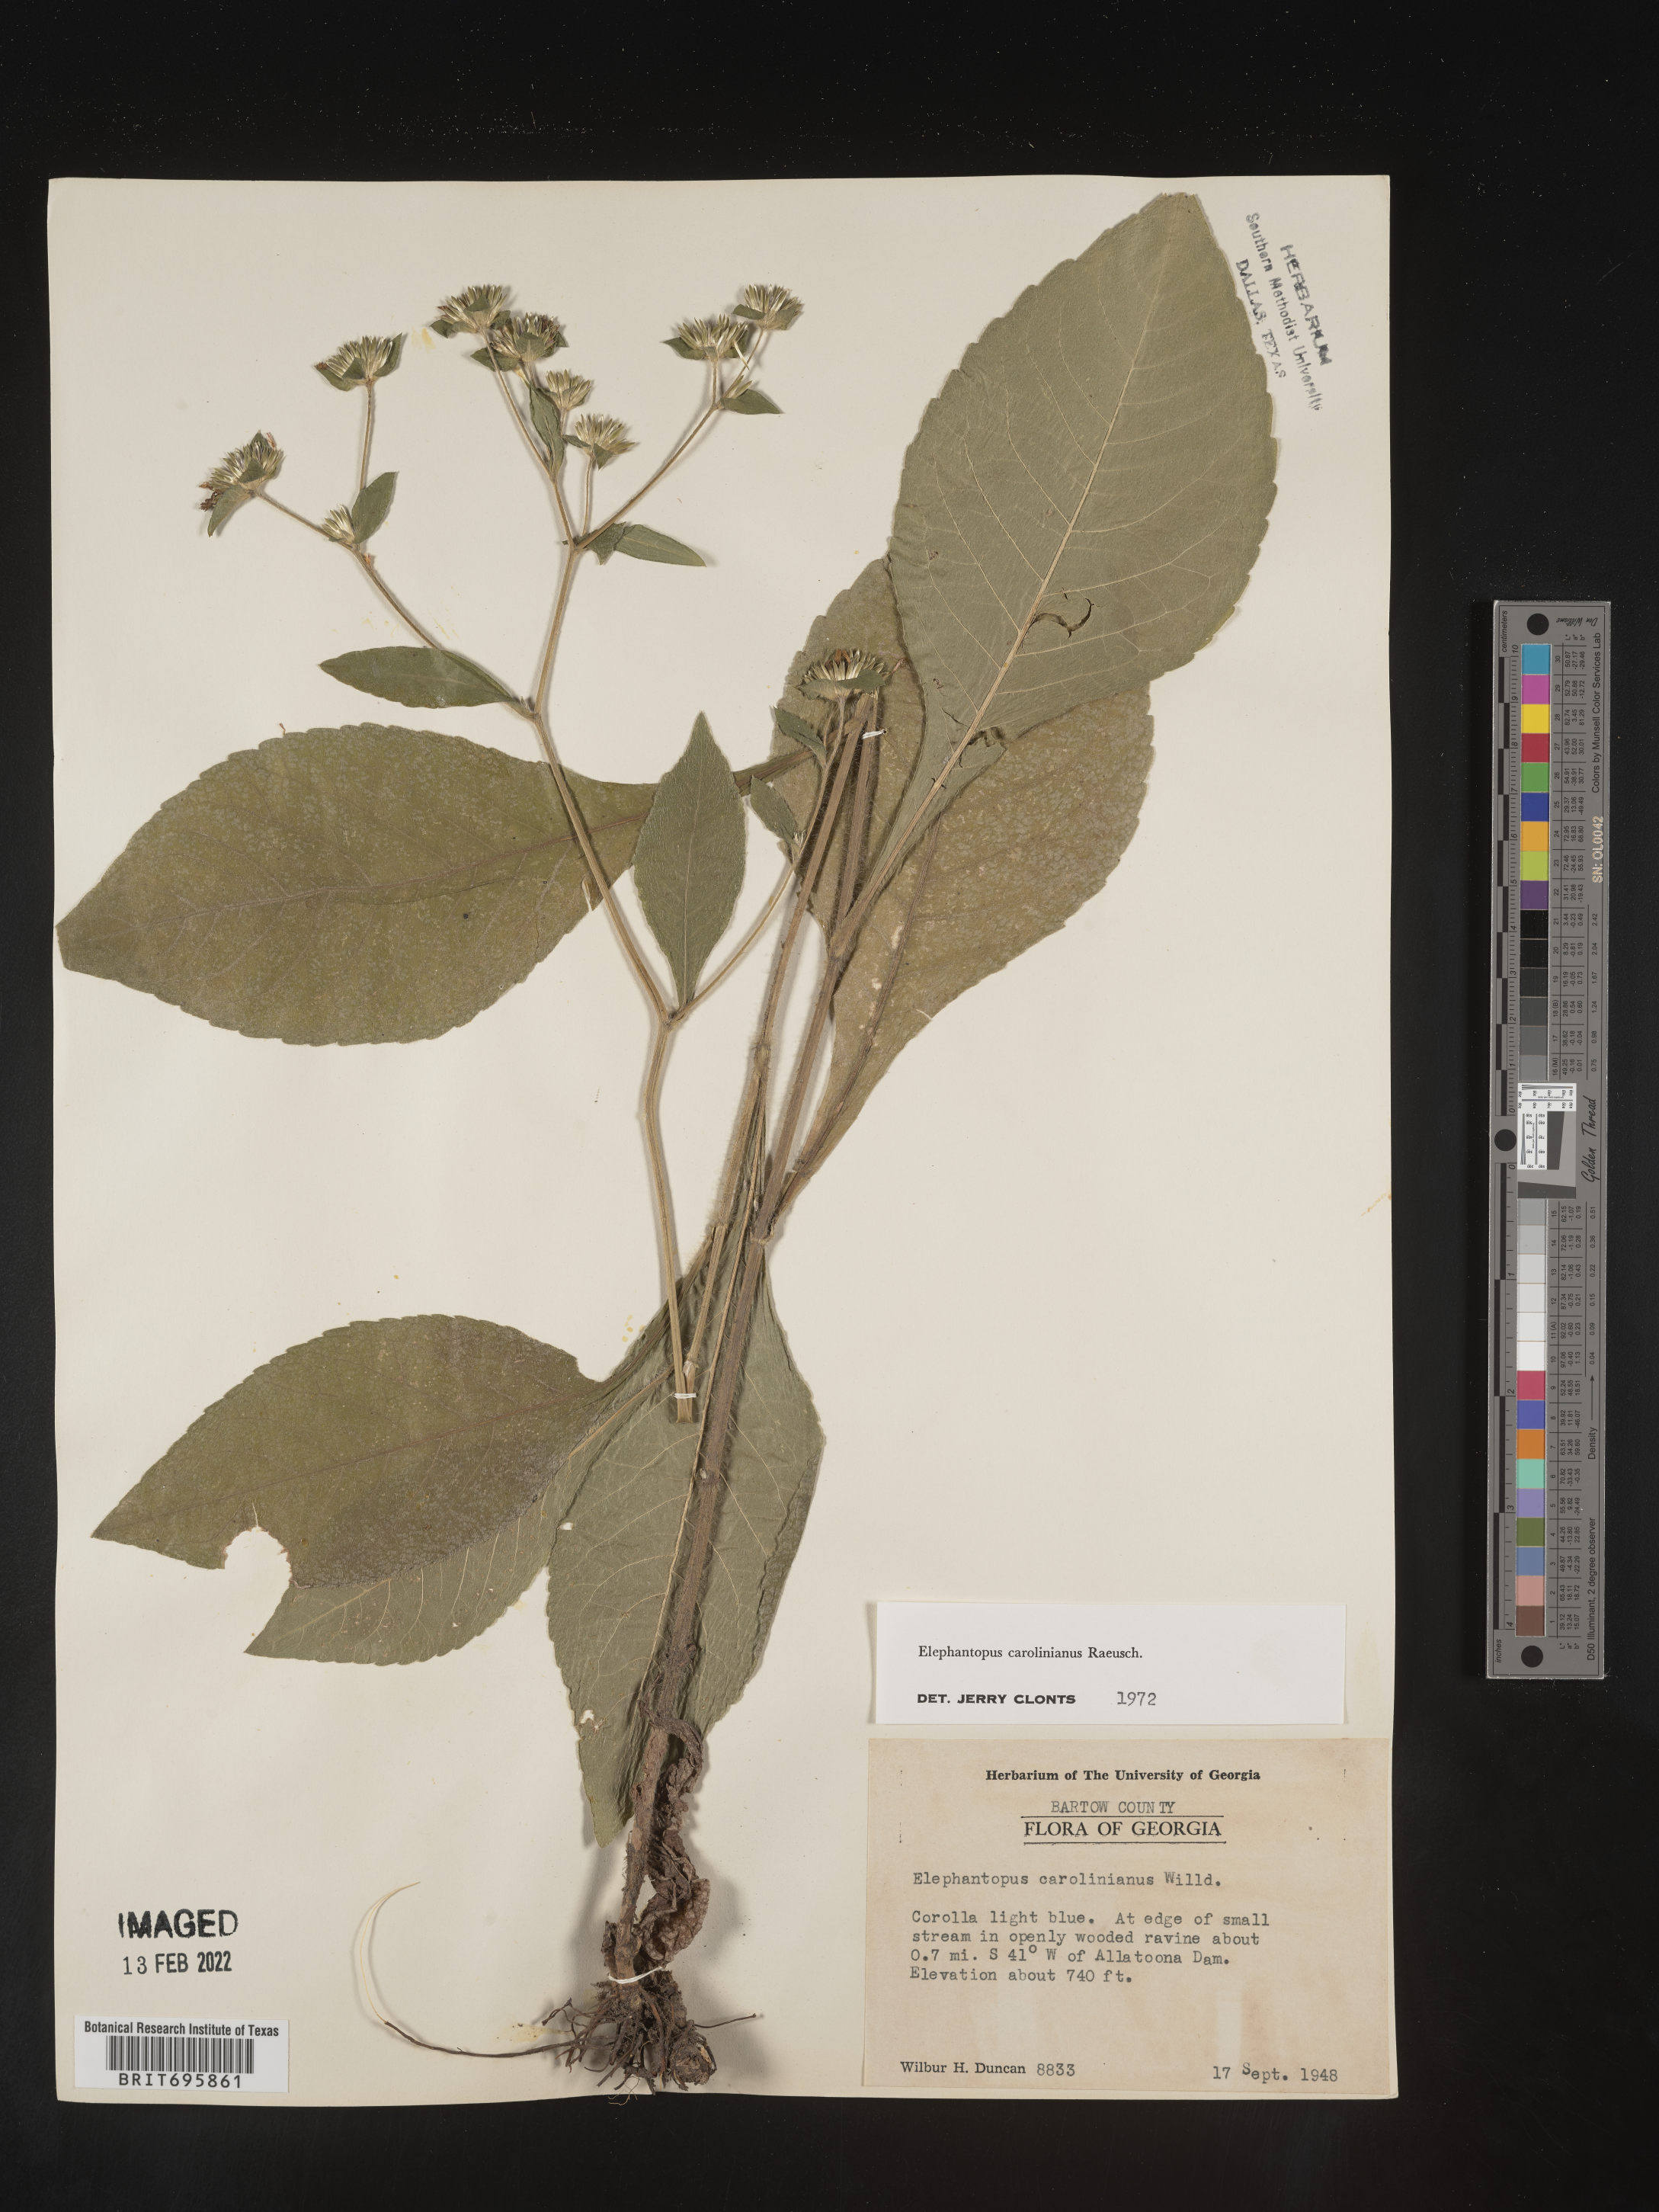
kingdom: Plantae
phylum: Tracheophyta
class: Magnoliopsida
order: Asterales
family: Asteraceae
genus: Elephantopus
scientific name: Elephantopus carolinianus
